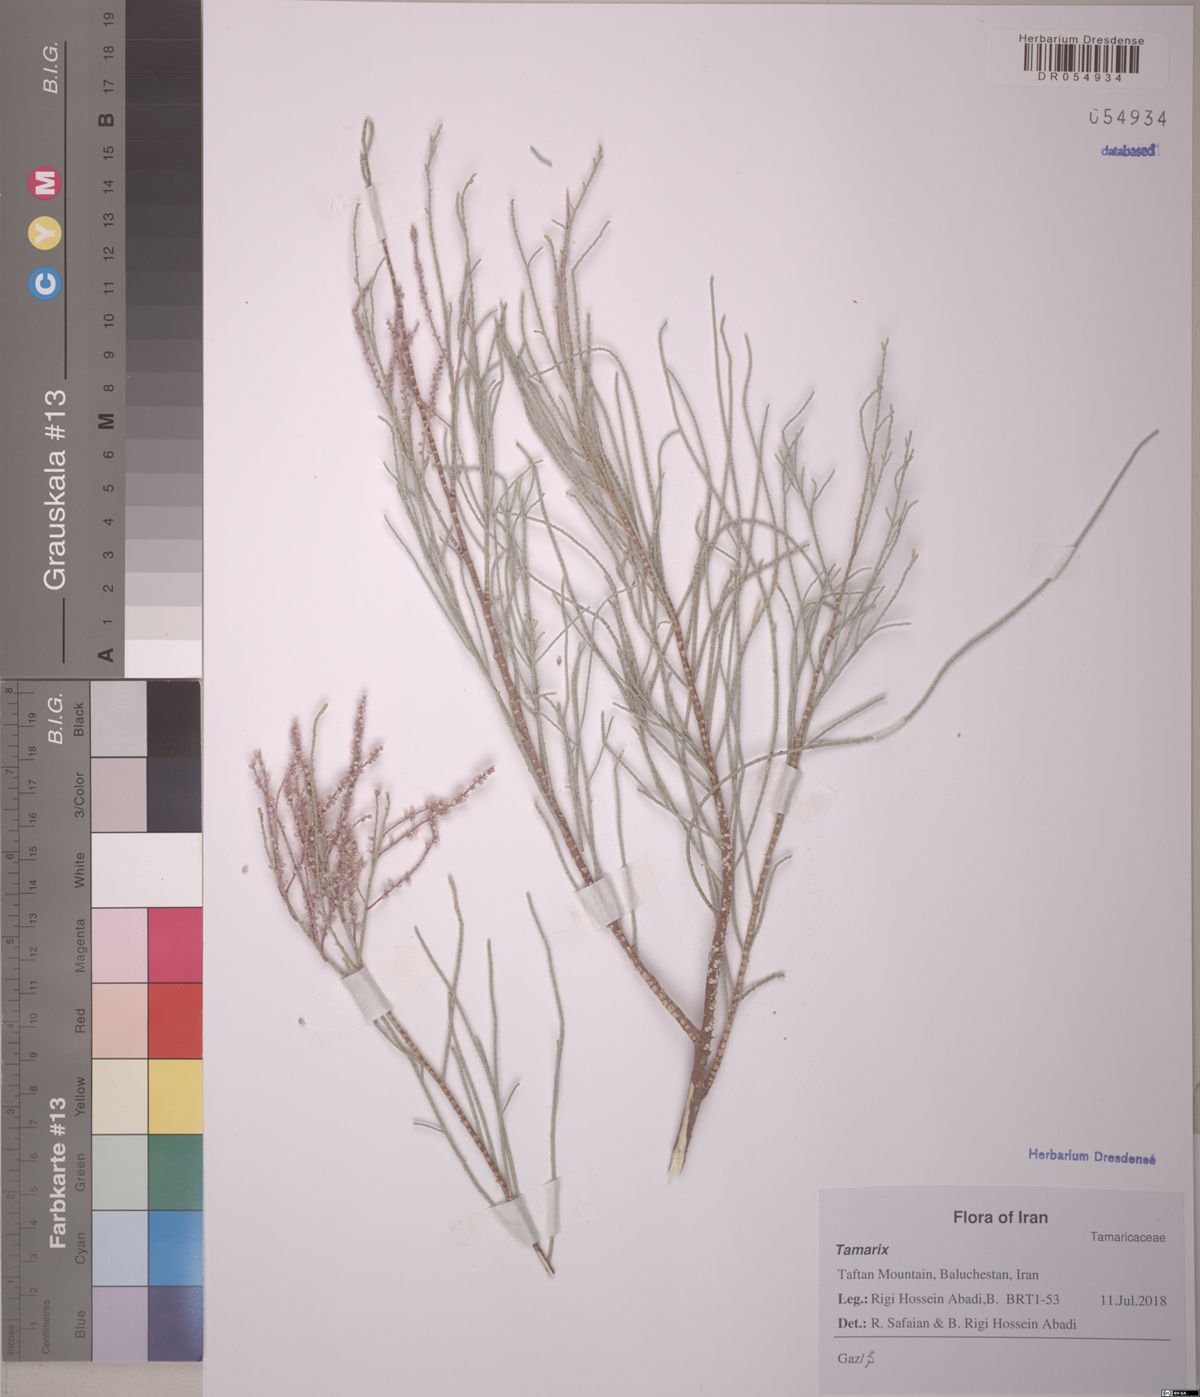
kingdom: Plantae
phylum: Tracheophyta
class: Magnoliopsida
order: Caryophyllales
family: Tamaricaceae
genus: Tamarix
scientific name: Tamarix mascatensis
